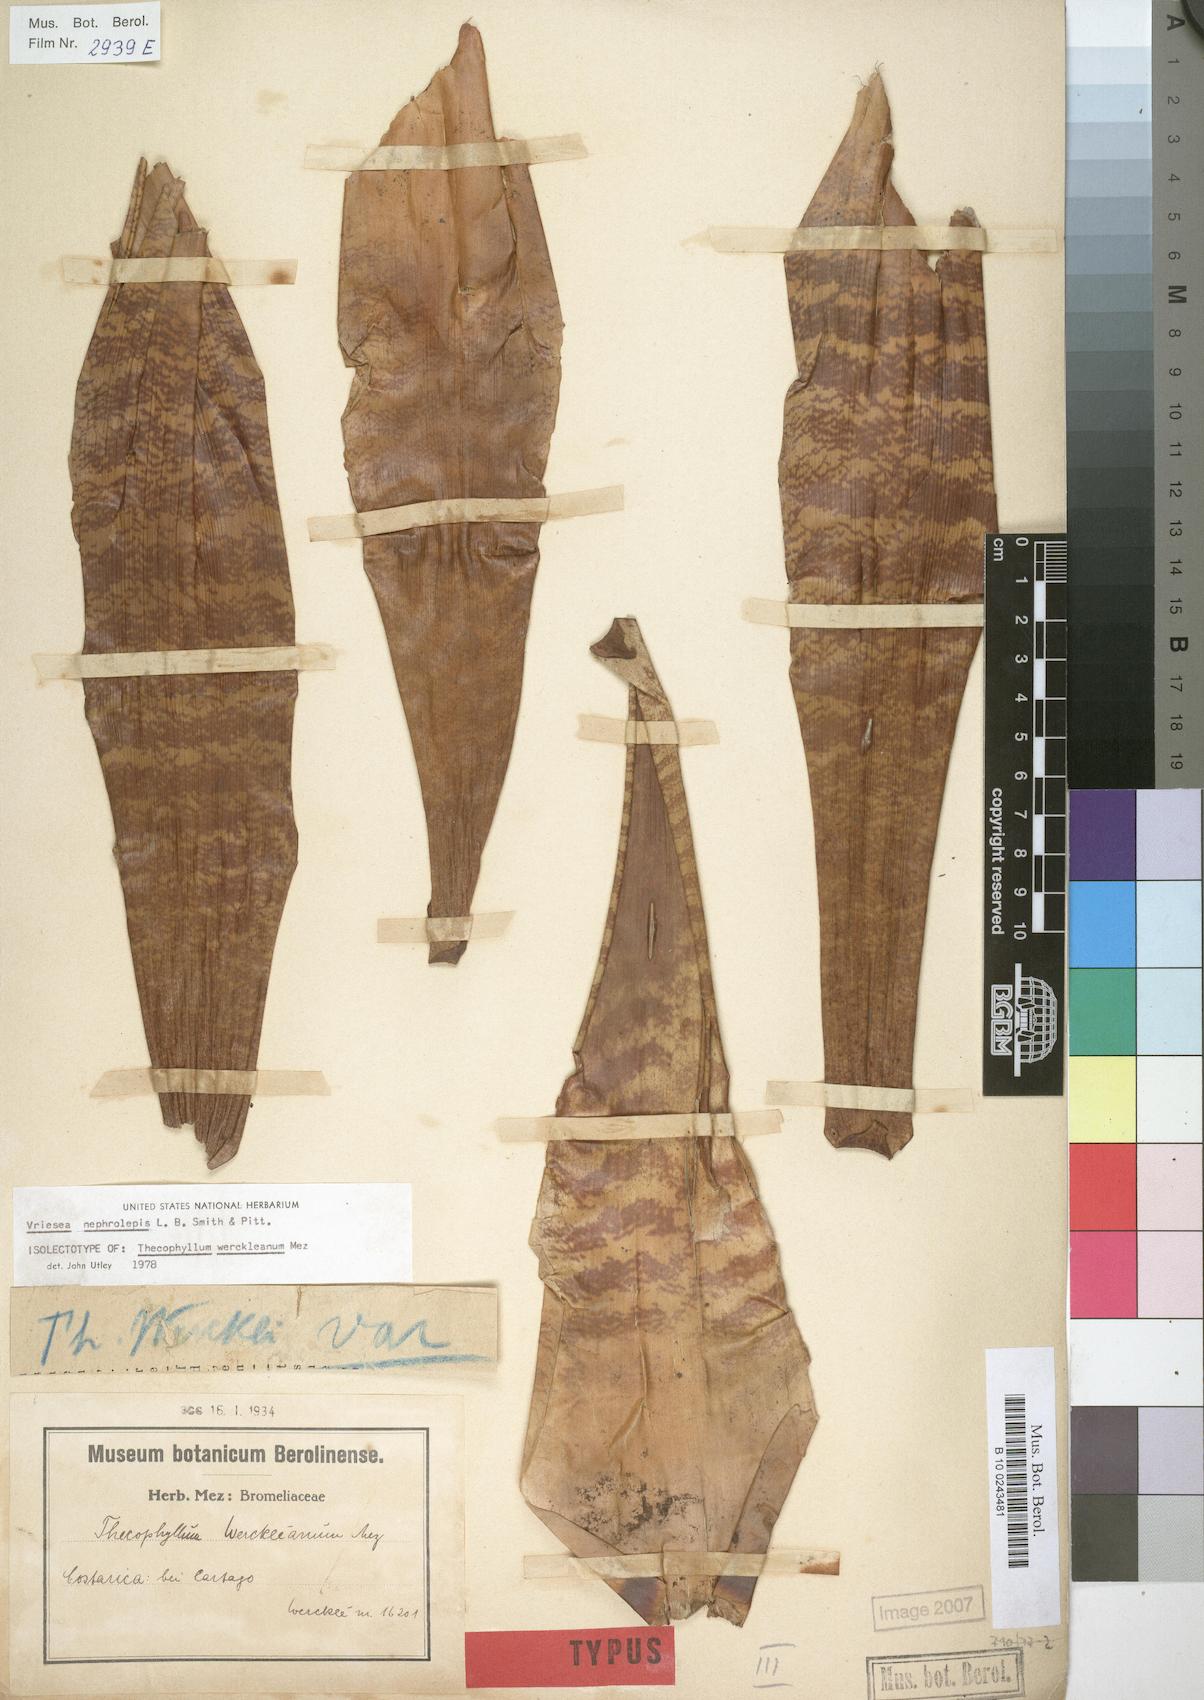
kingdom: Plantae
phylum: Tracheophyta
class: Liliopsida
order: Poales
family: Bromeliaceae
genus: Werauhia
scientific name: Werauhia montana
